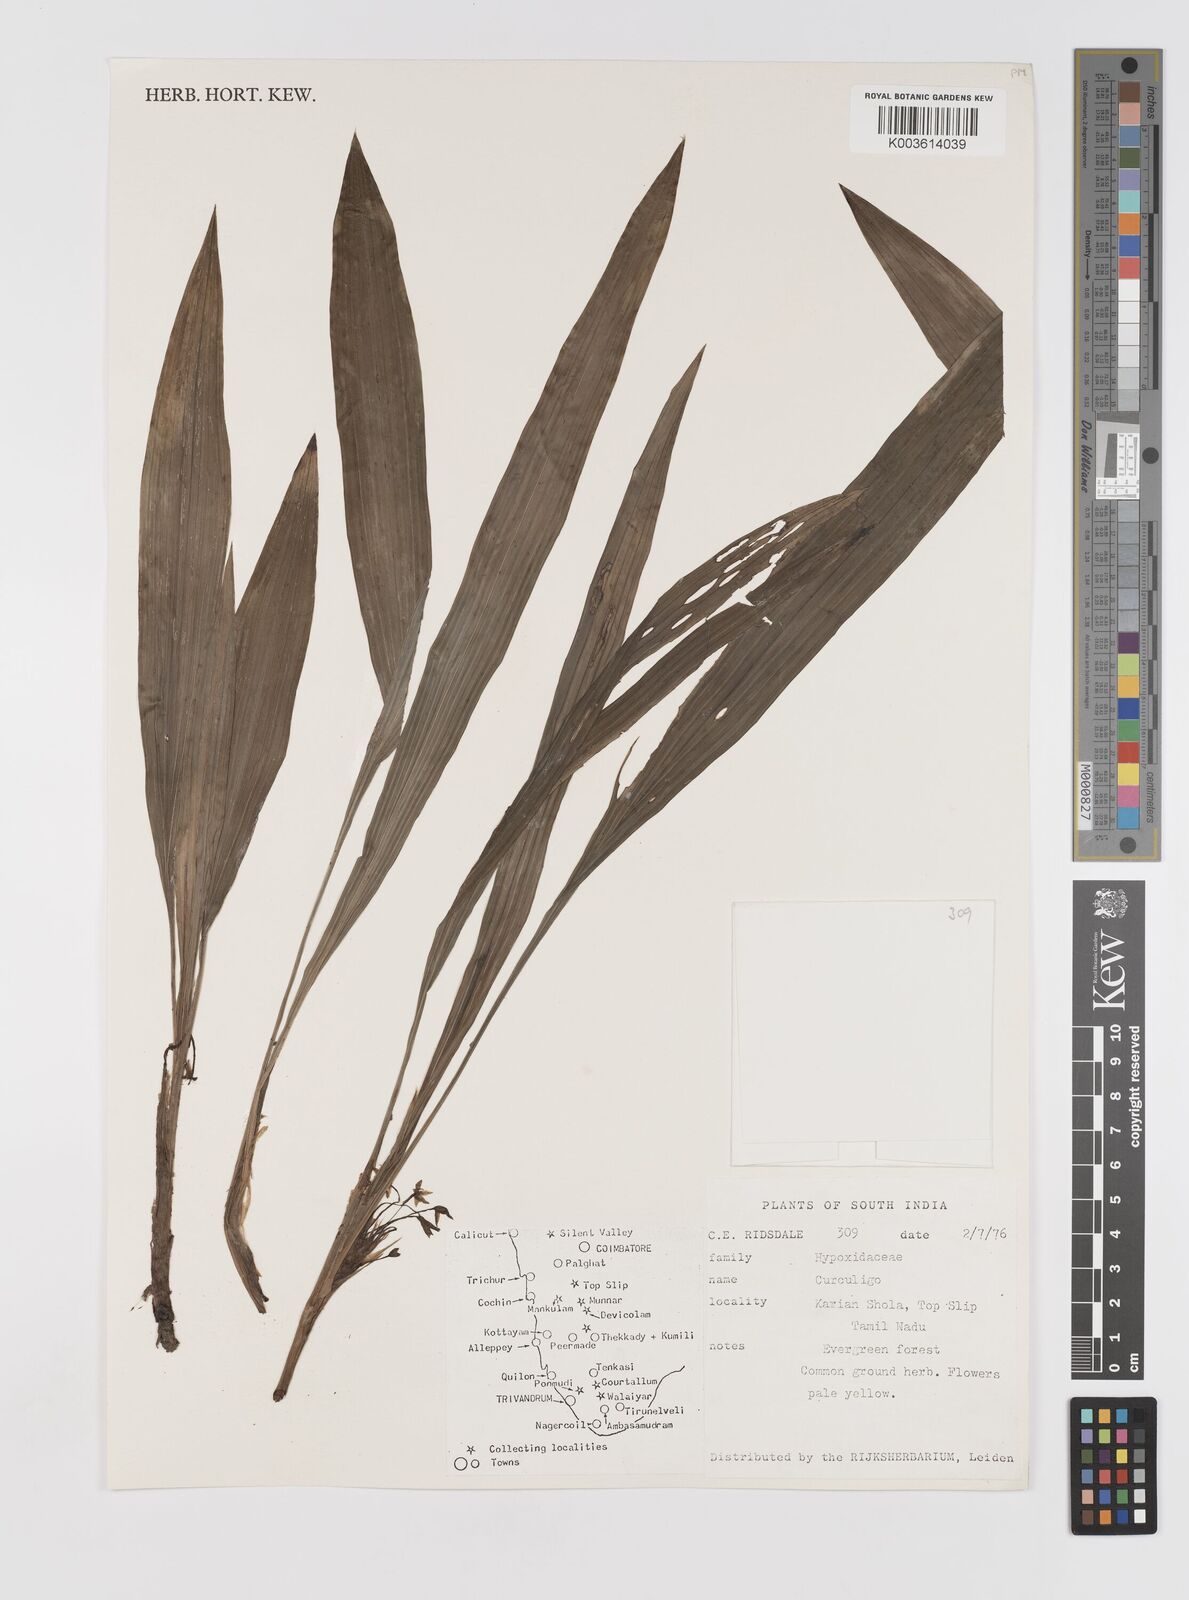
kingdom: Plantae
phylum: Tracheophyta
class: Liliopsida
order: Asparagales
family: Hypoxidaceae
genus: Curculigo
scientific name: Curculigo
